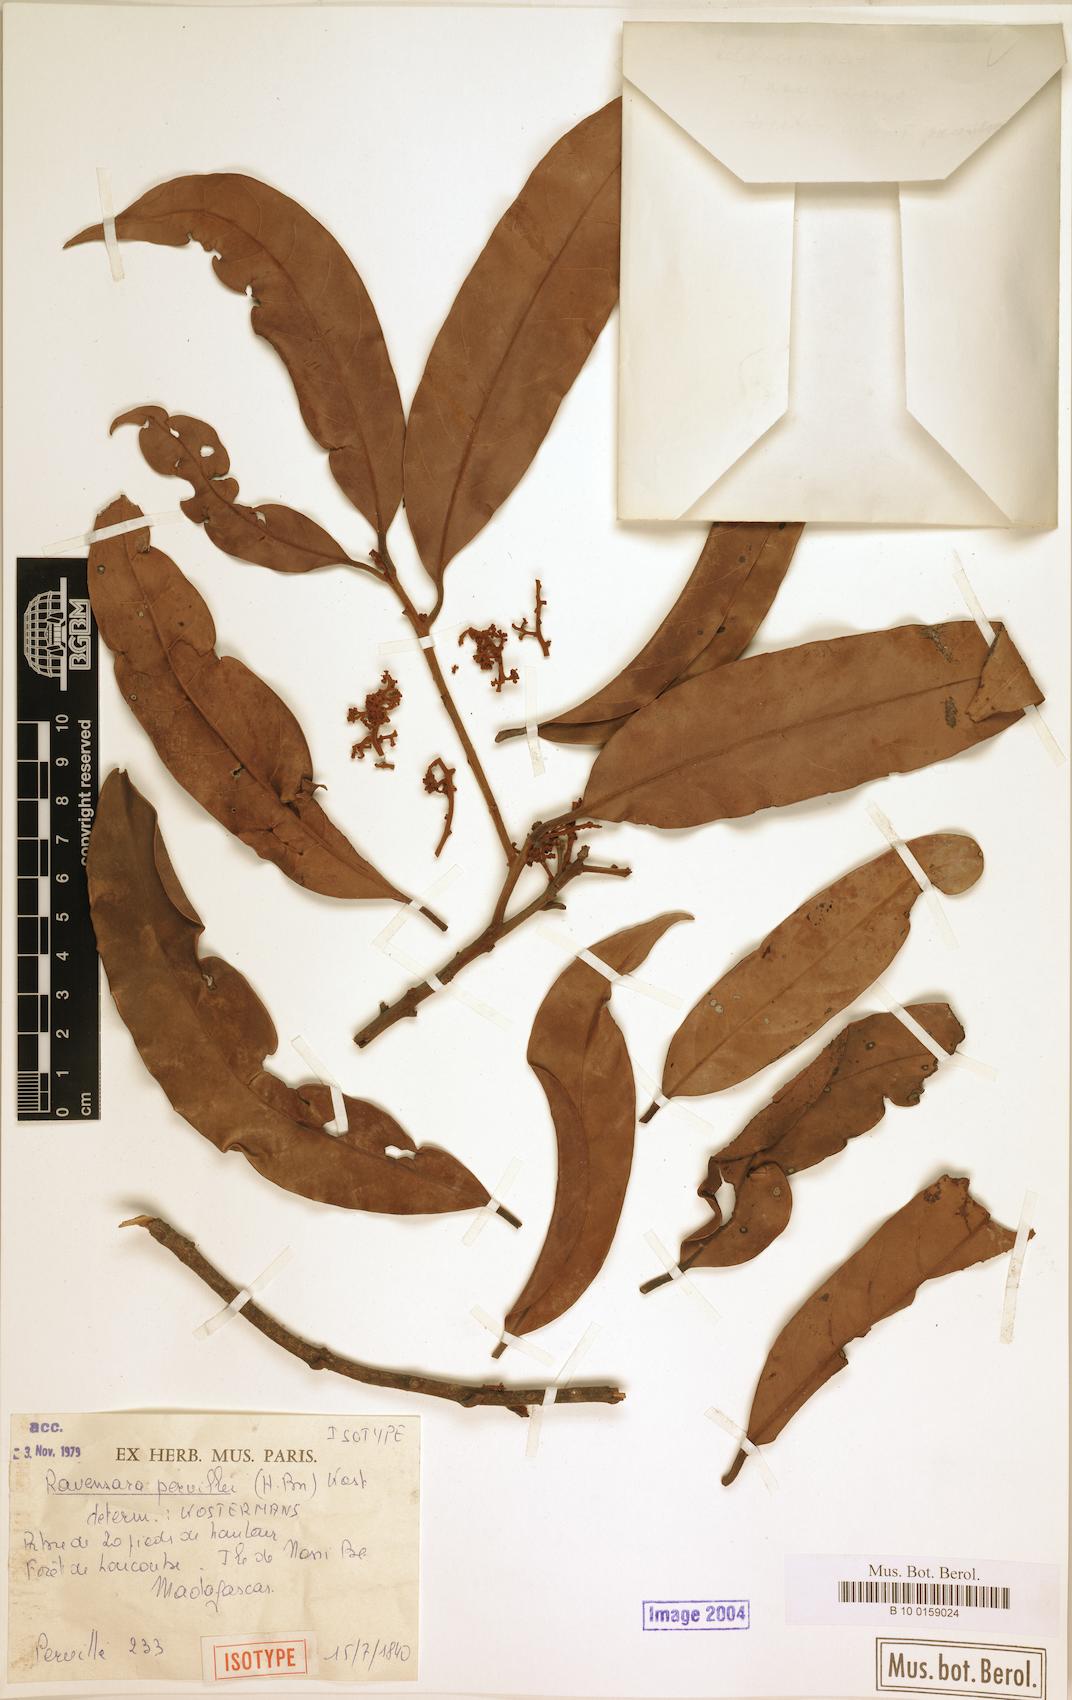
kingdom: Plantae
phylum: Tracheophyta
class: Magnoliopsida
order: Laurales
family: Lauraceae
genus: Cryptocarya
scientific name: Cryptocarya pervillei
